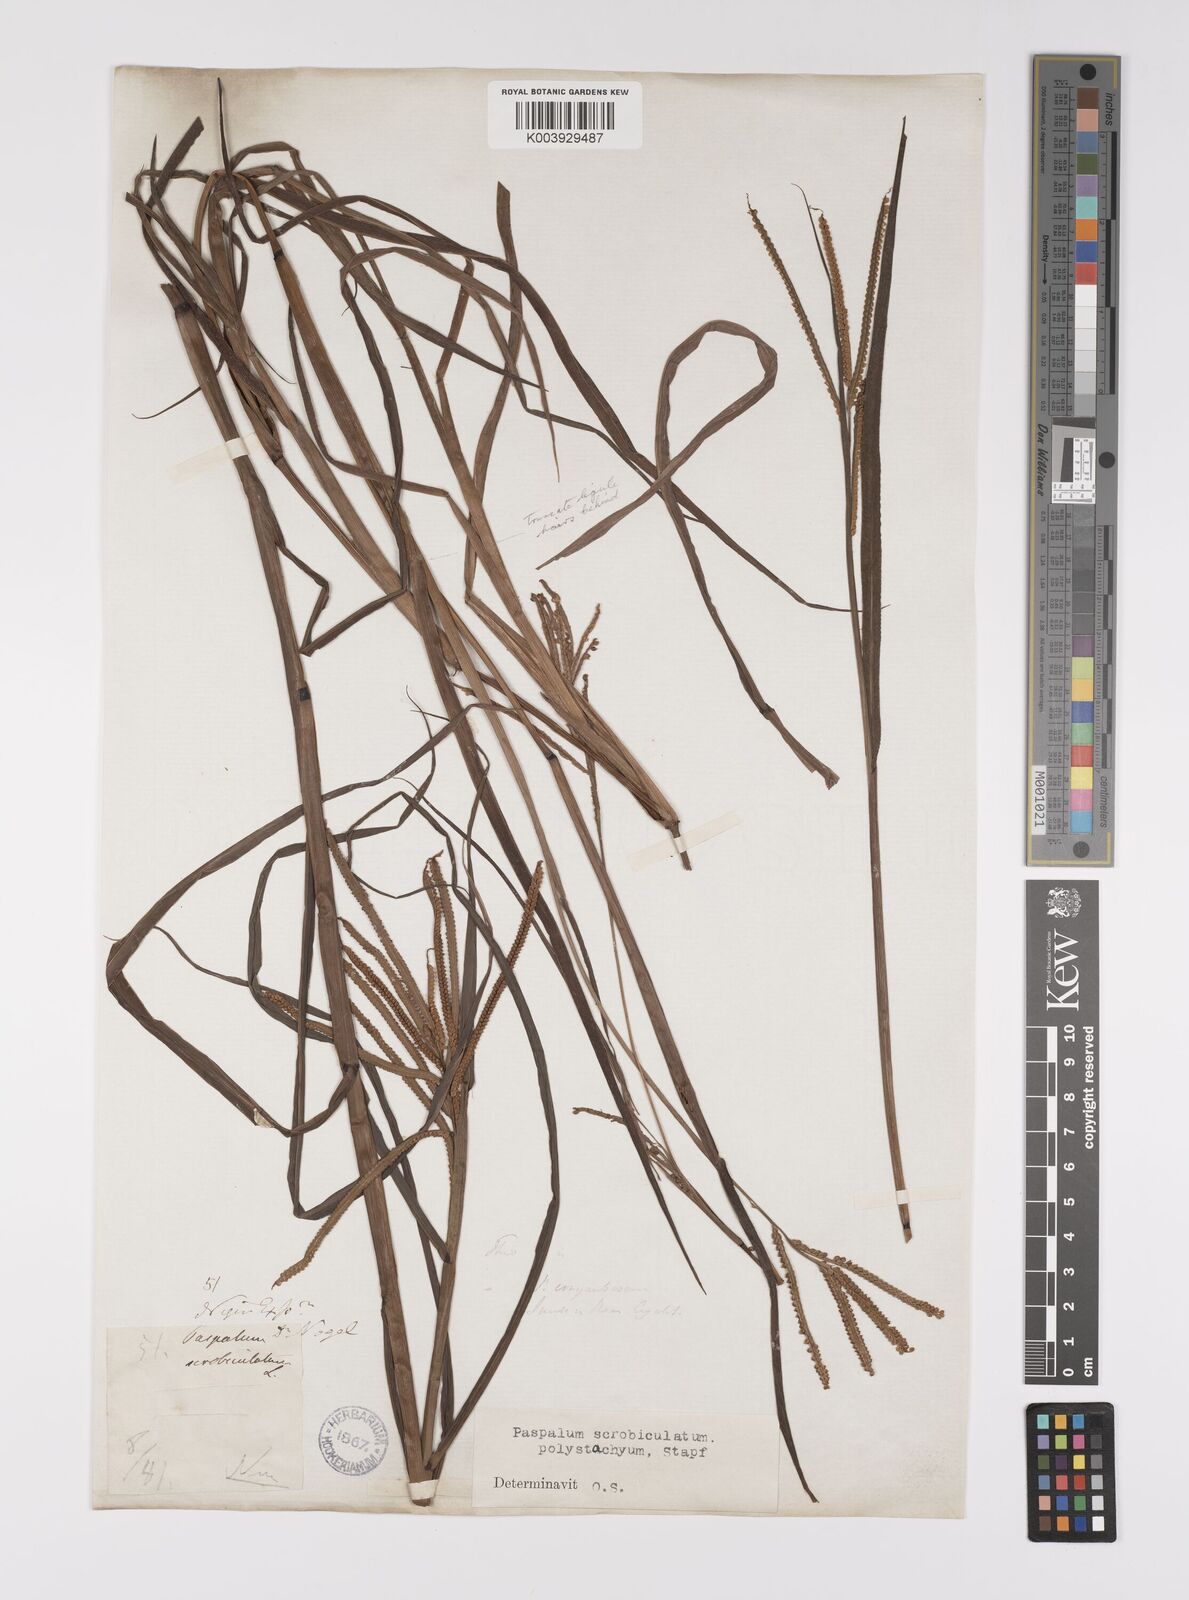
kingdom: Plantae
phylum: Tracheophyta
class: Liliopsida
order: Poales
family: Poaceae
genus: Paspalum
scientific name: Paspalum scrobiculatum
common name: Kodo millet
